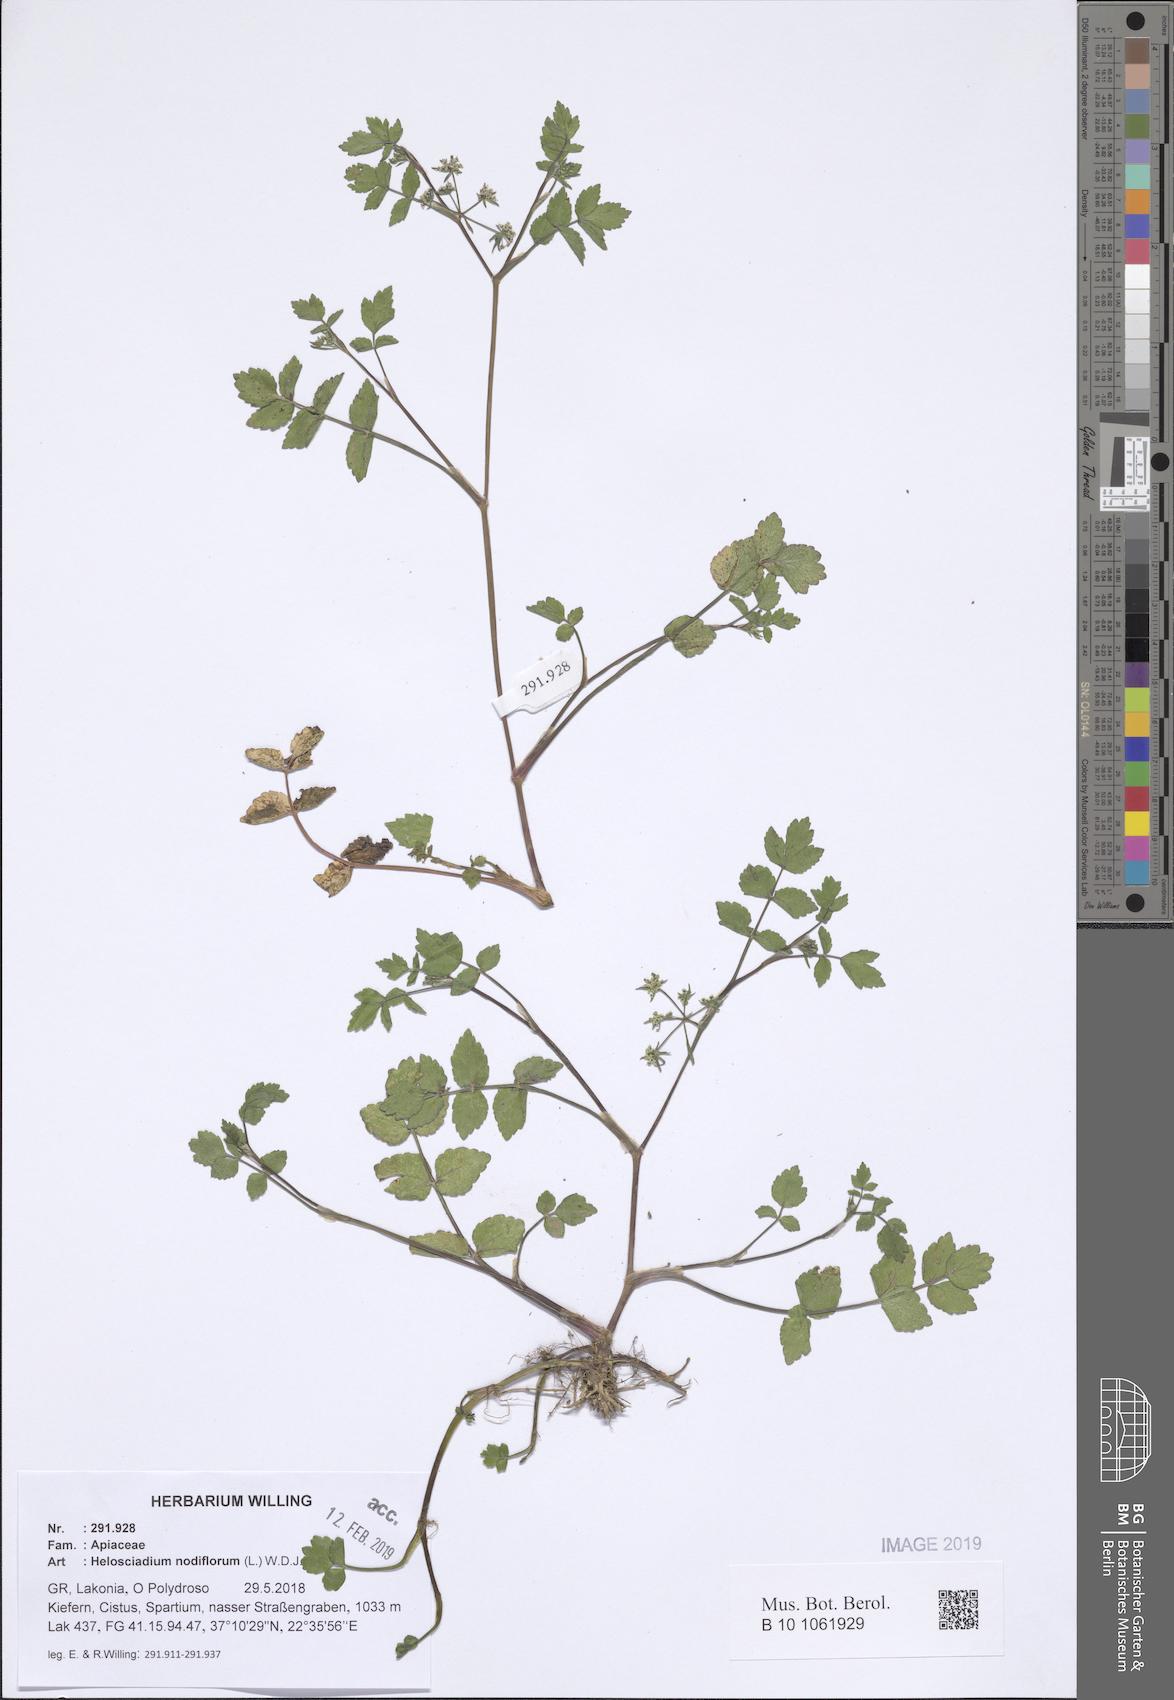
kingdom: Plantae
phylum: Tracheophyta
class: Magnoliopsida
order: Apiales
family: Apiaceae
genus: Helosciadium
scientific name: Helosciadium nodiflorum
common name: Fool's-watercress
